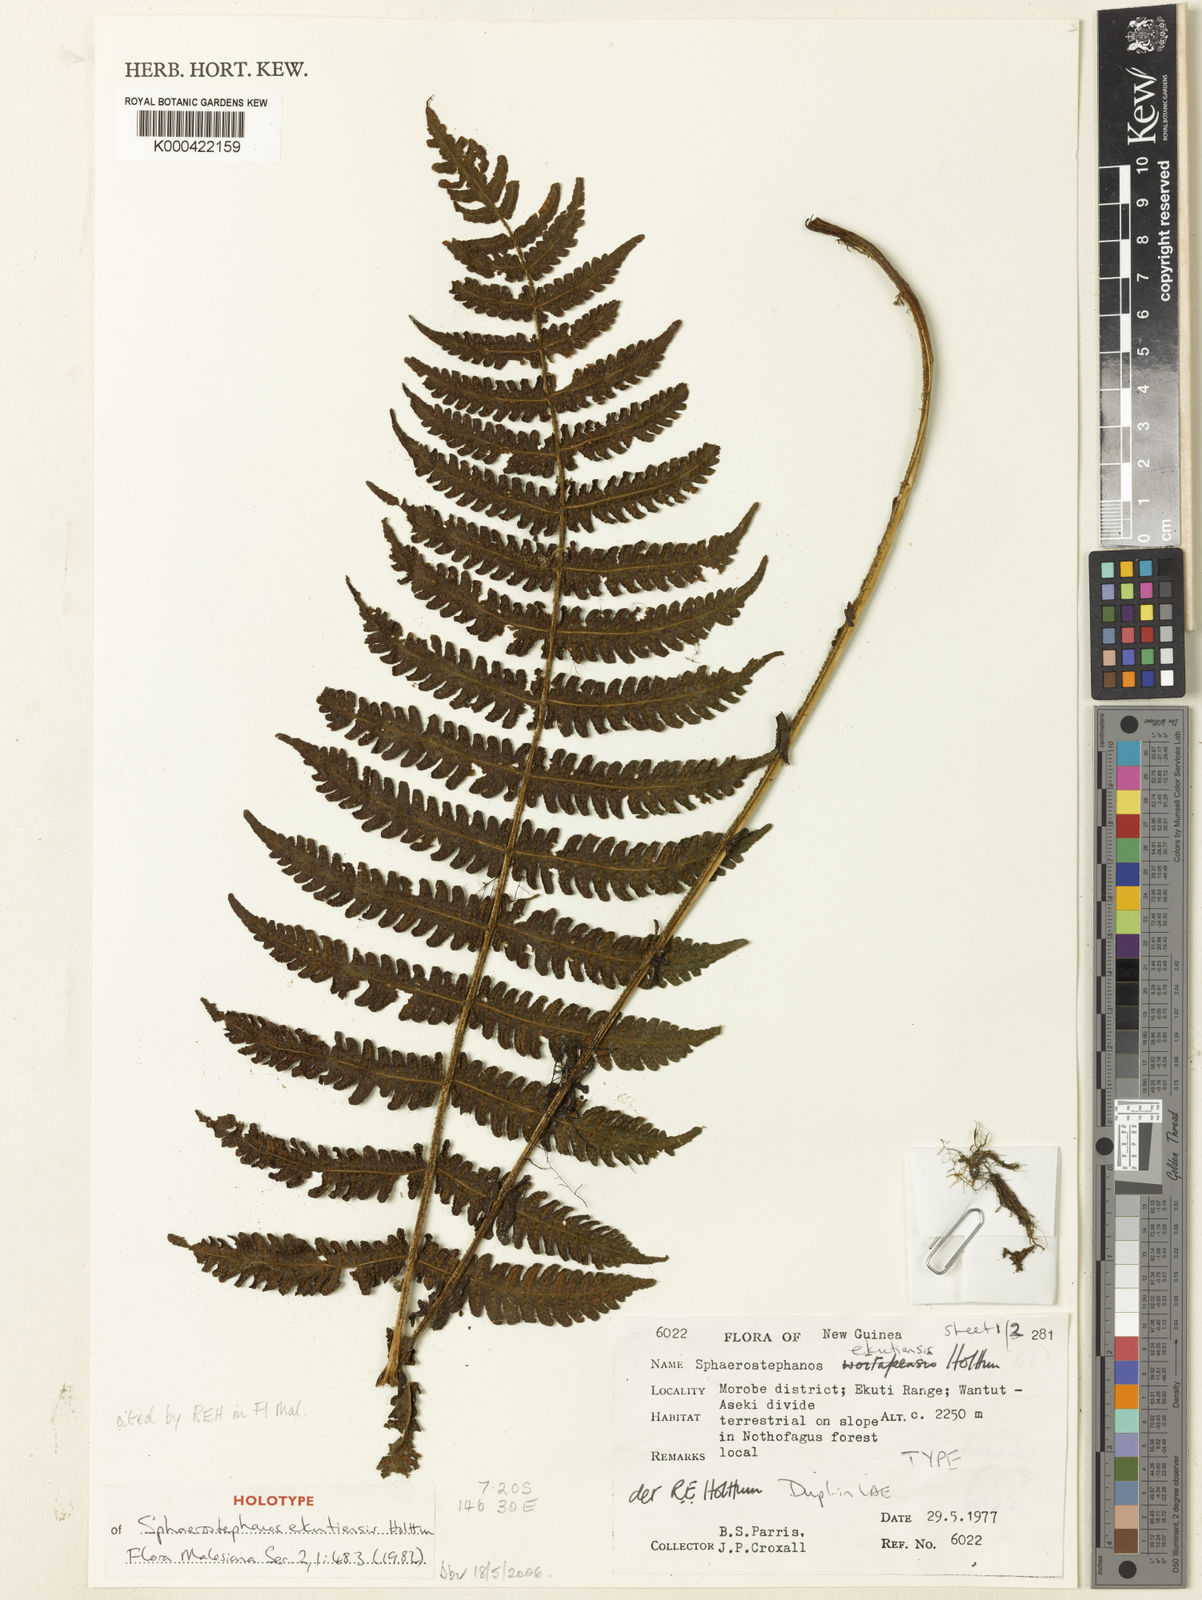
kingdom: Plantae
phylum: Tracheophyta
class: Polypodiopsida
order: Polypodiales
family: Thelypteridaceae
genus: Sphaerostephanos
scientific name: Sphaerostephanos ekutiensis
